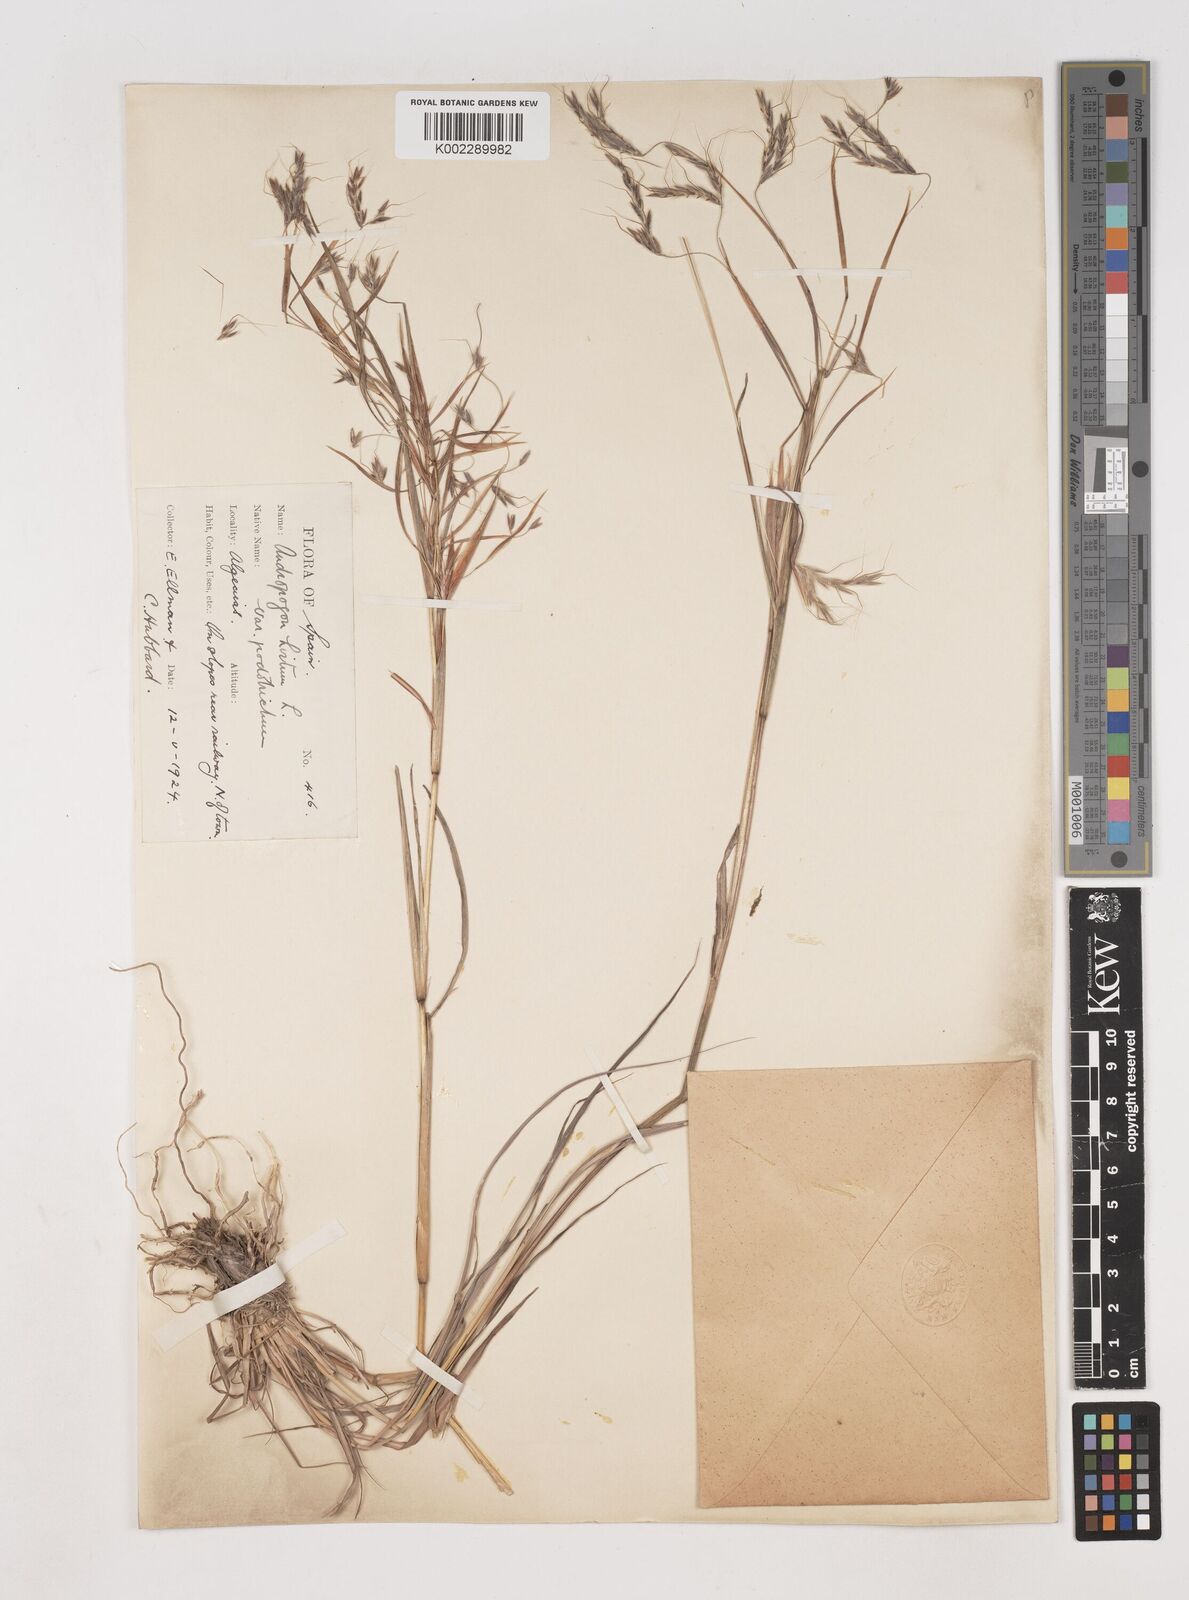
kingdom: Plantae
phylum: Tracheophyta
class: Liliopsida
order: Poales
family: Poaceae
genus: Hyparrhenia
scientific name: Hyparrhenia hirta
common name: Thatching grass
